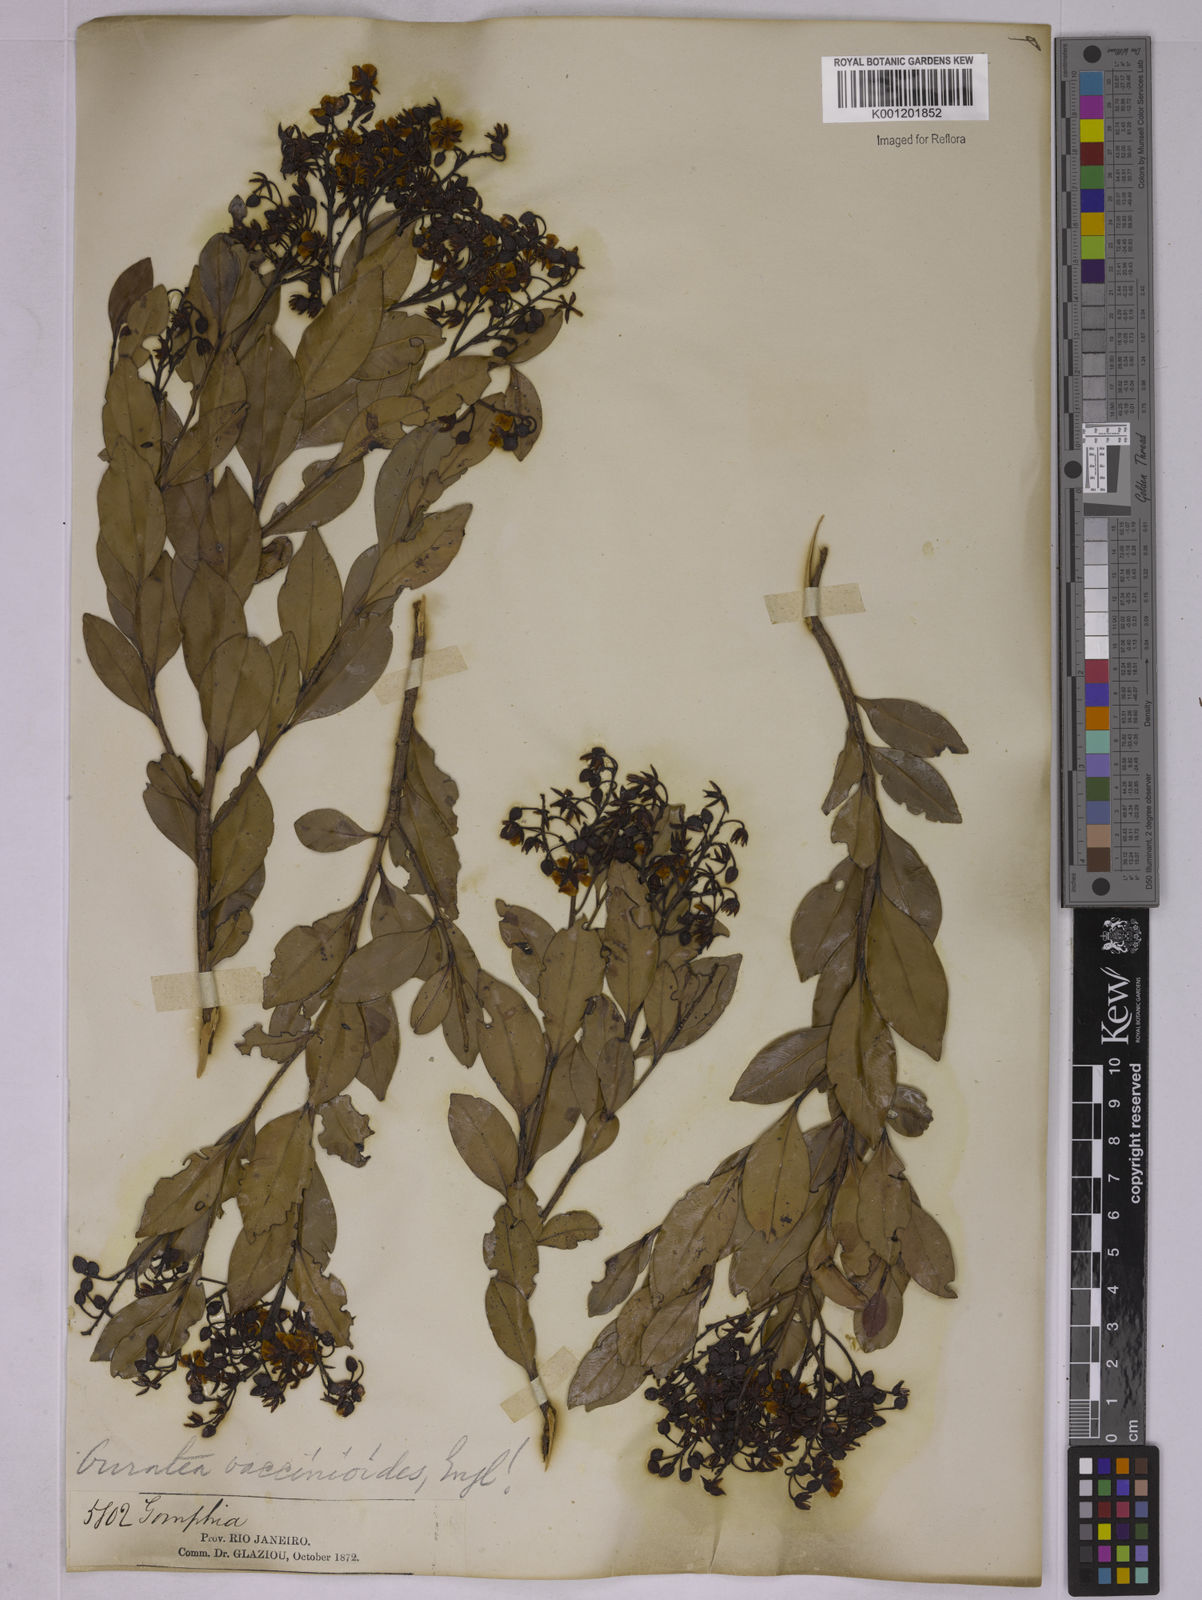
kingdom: Plantae
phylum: Tracheophyta
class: Magnoliopsida
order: Malpighiales
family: Ochnaceae
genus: Ouratea
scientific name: Ouratea vaccinioides
